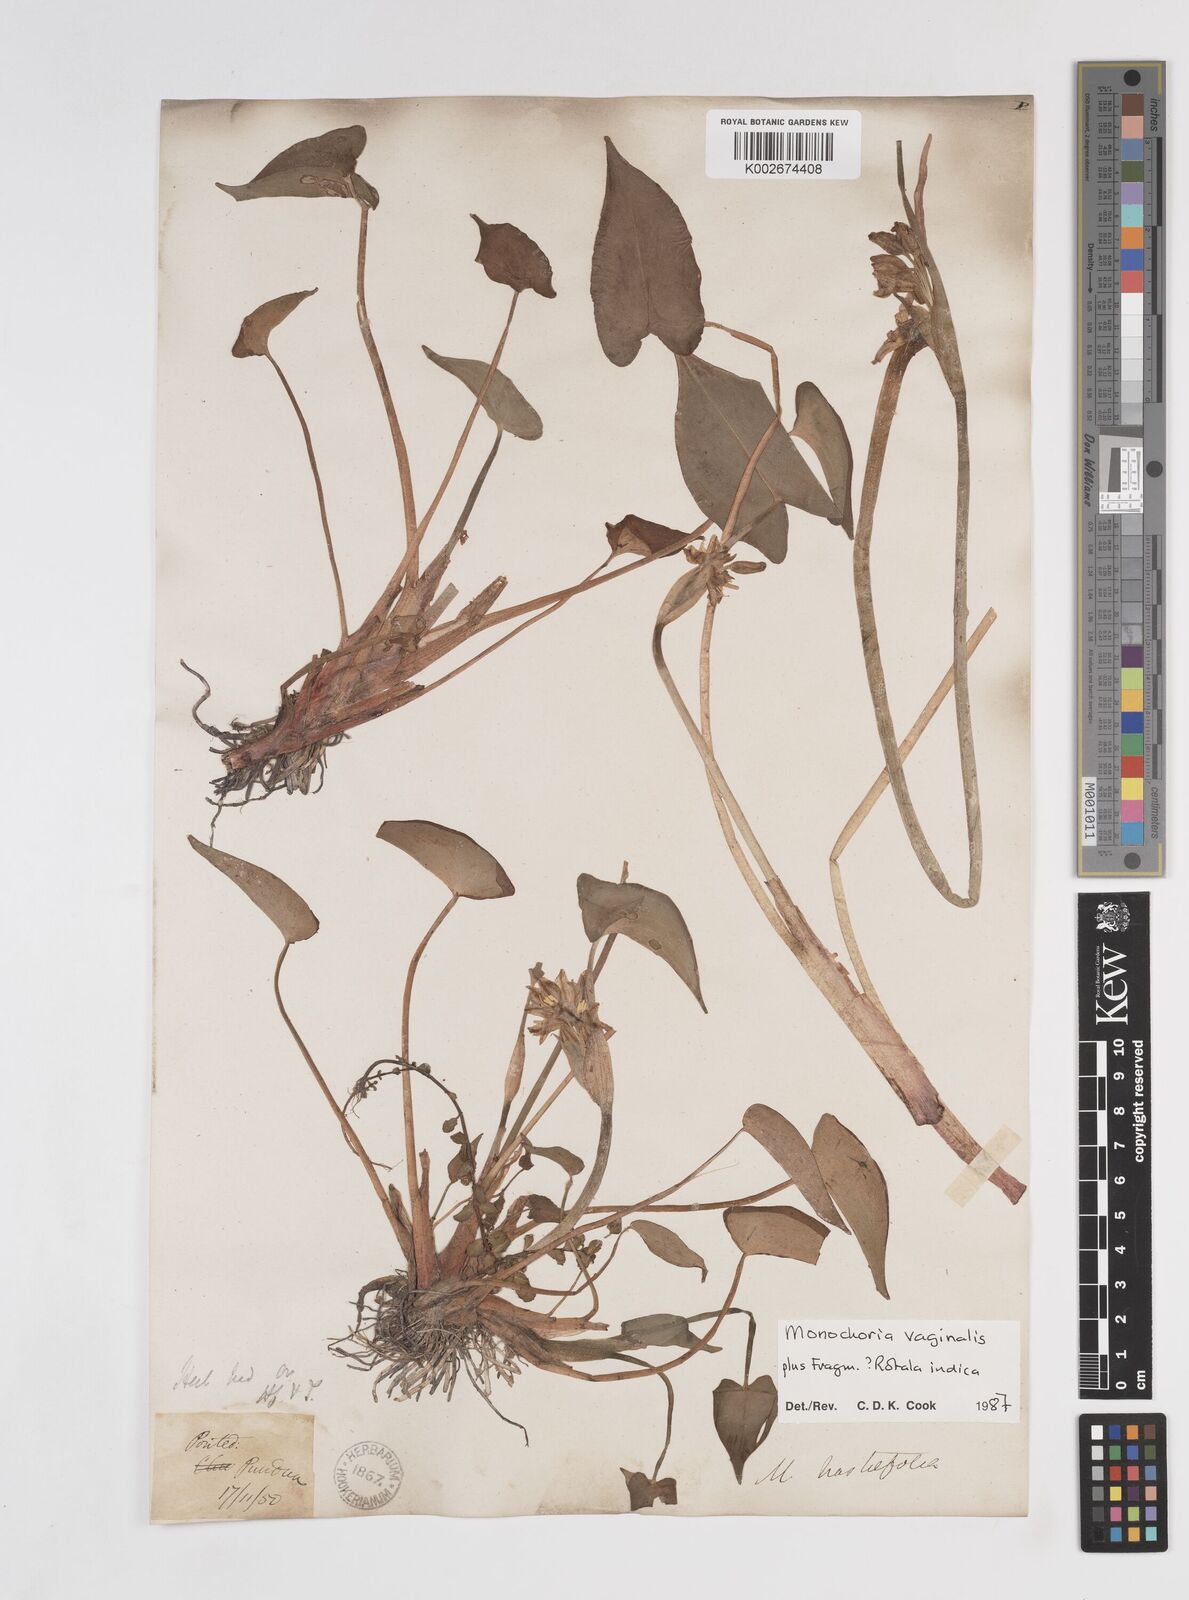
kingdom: Plantae
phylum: Tracheophyta
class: Liliopsida
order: Commelinales
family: Pontederiaceae
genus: Pontederia
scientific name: Pontederia vaginalis
